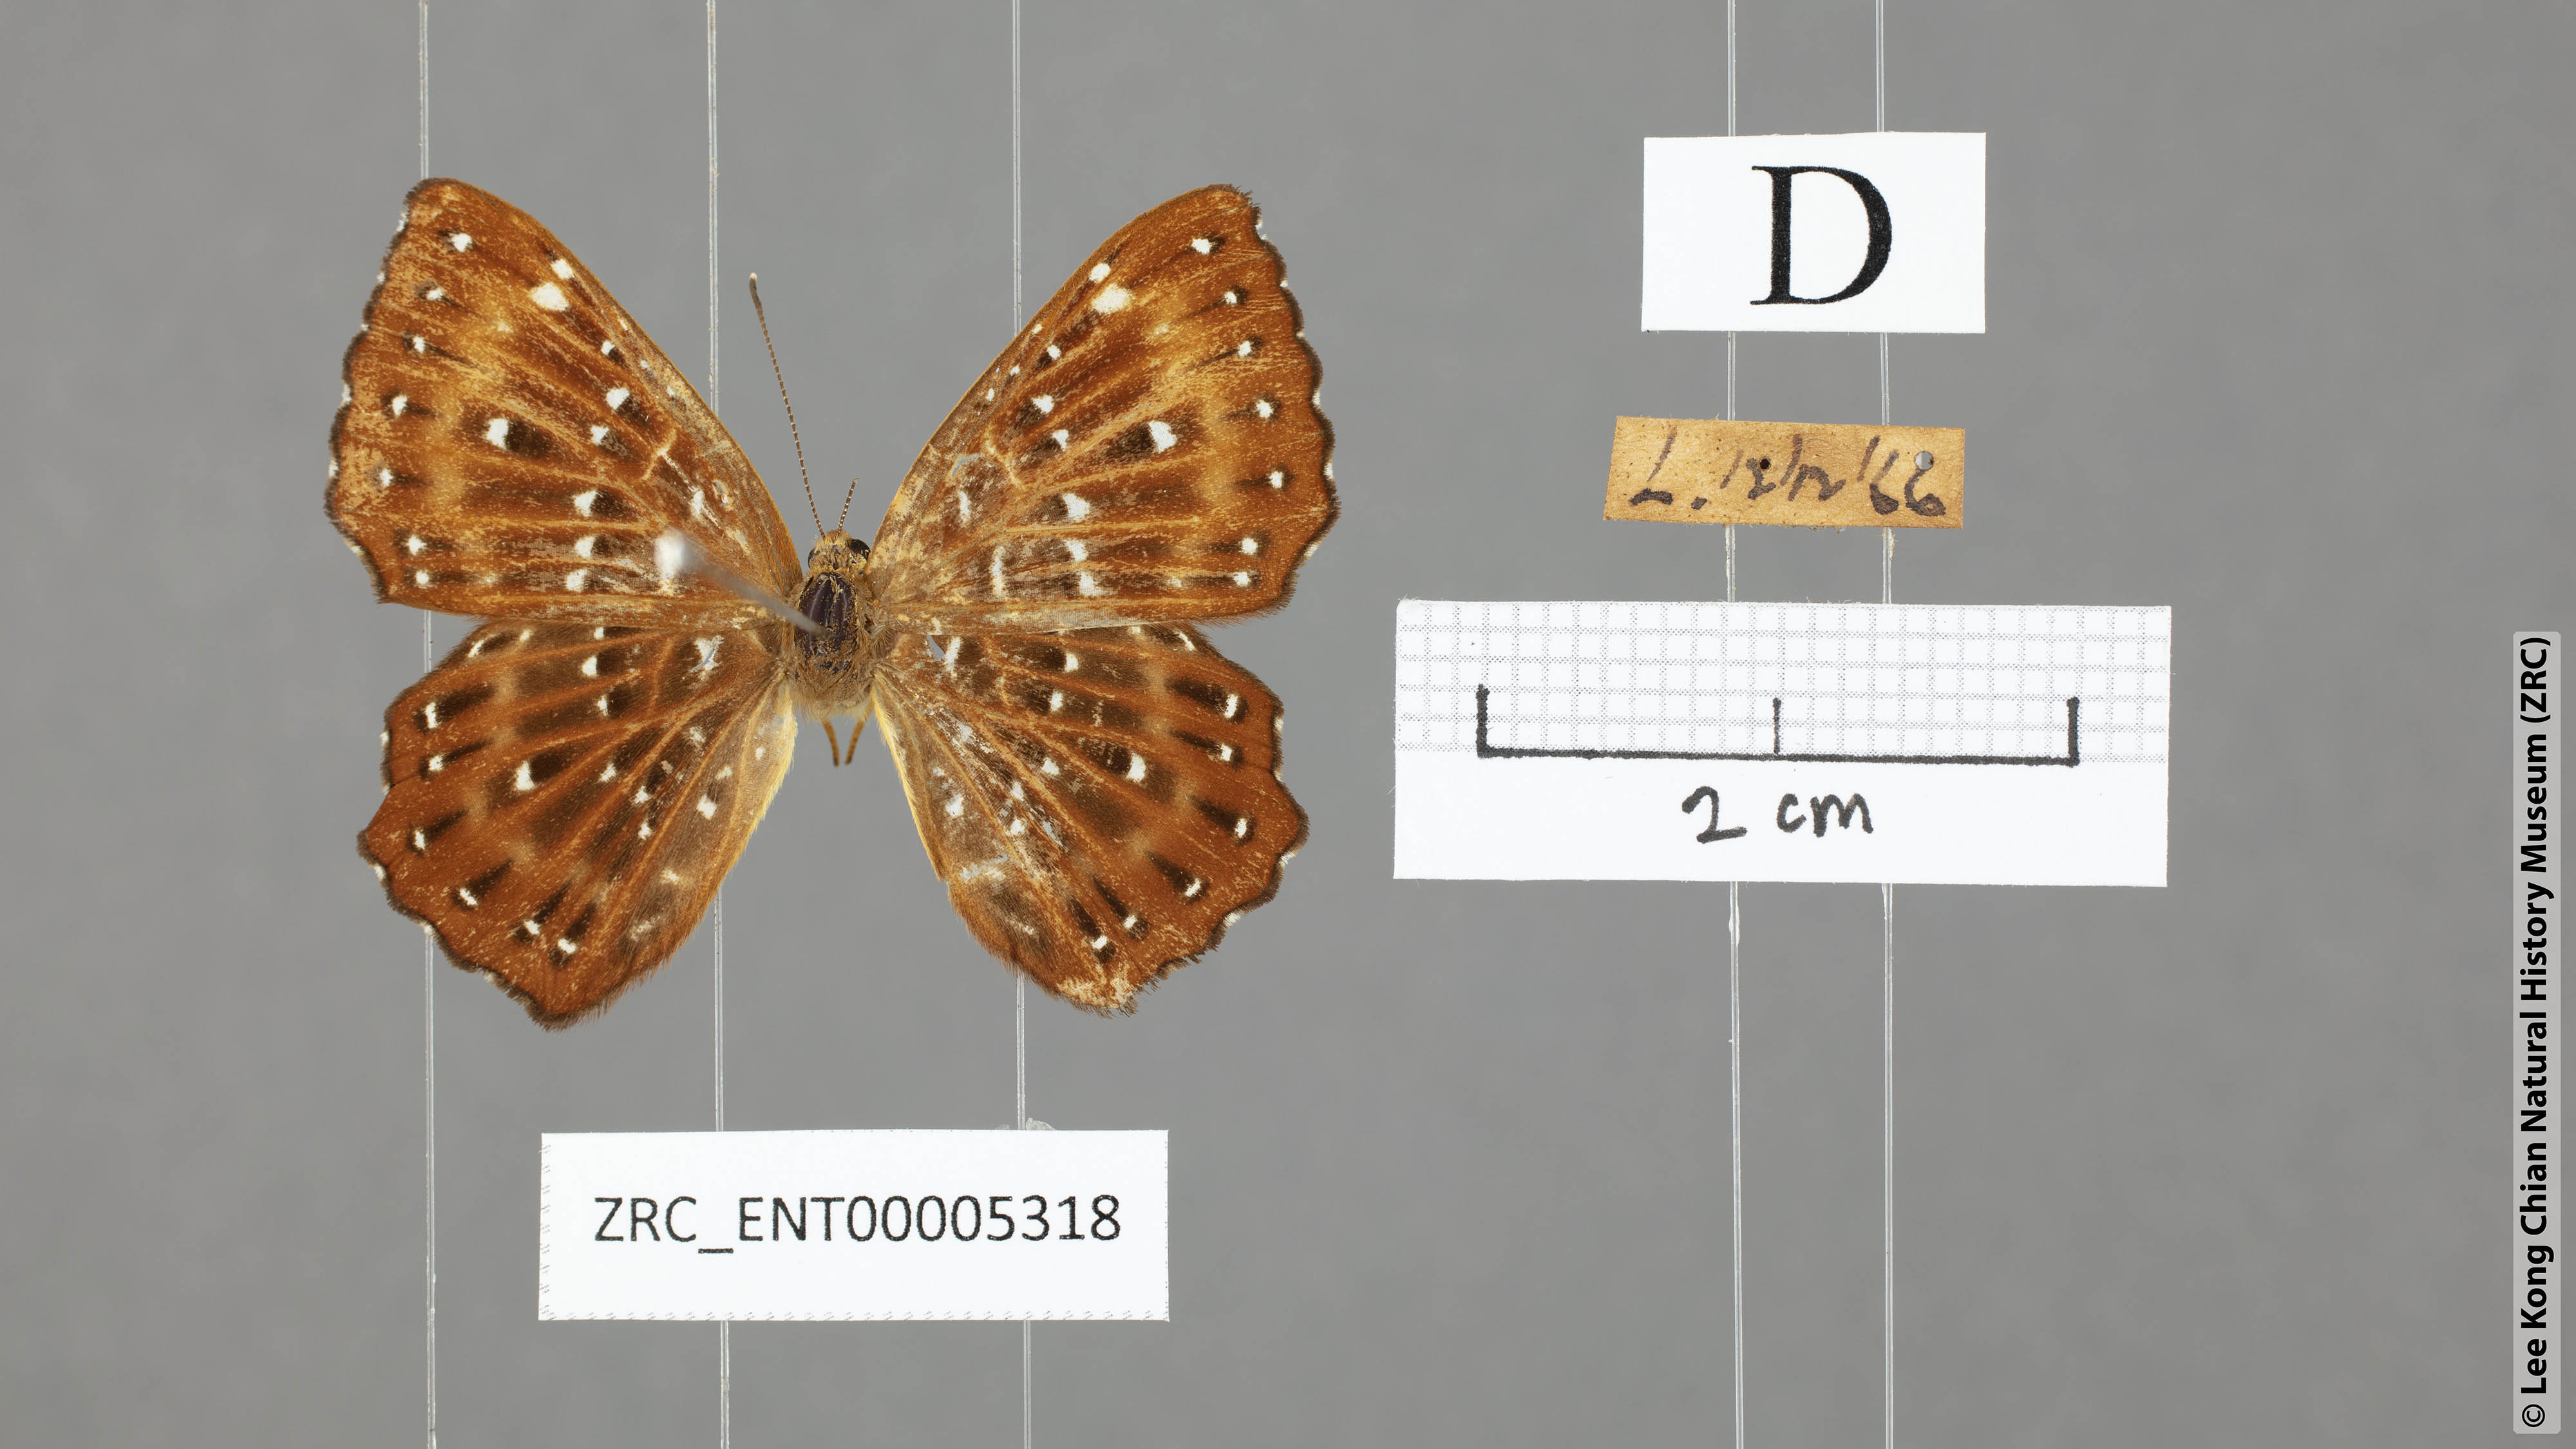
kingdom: Animalia
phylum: Arthropoda
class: Insecta
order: Lepidoptera
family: Riodinidae
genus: Zemeros
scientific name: Zemeros flegyas
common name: Punchinello
